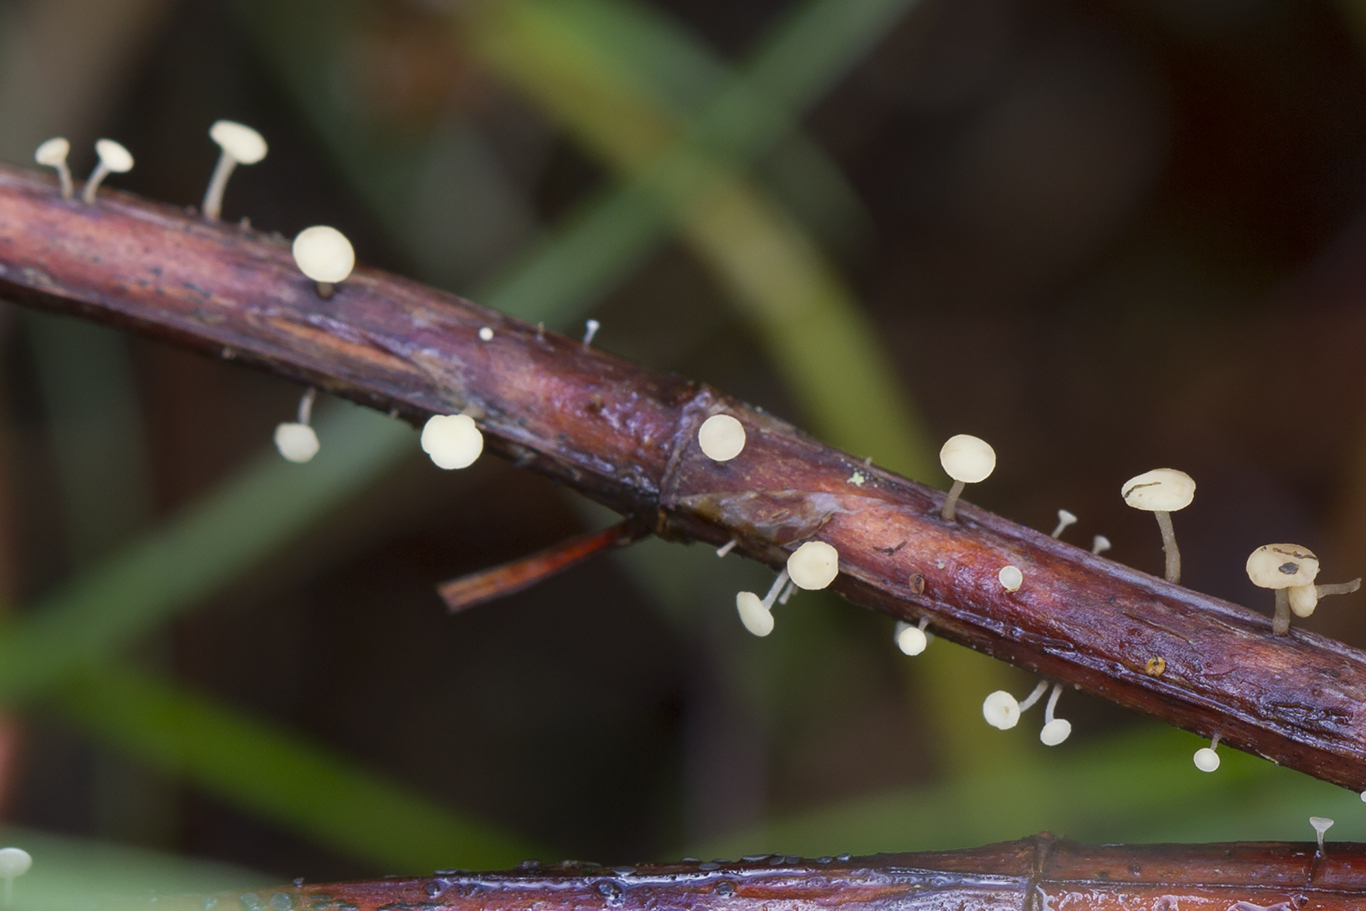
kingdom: Fungi
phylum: Ascomycota
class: Leotiomycetes
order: Helotiales
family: Helotiaceae
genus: Hymenoscyphus
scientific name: Hymenoscyphus scutula
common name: almindelig stilkskive
